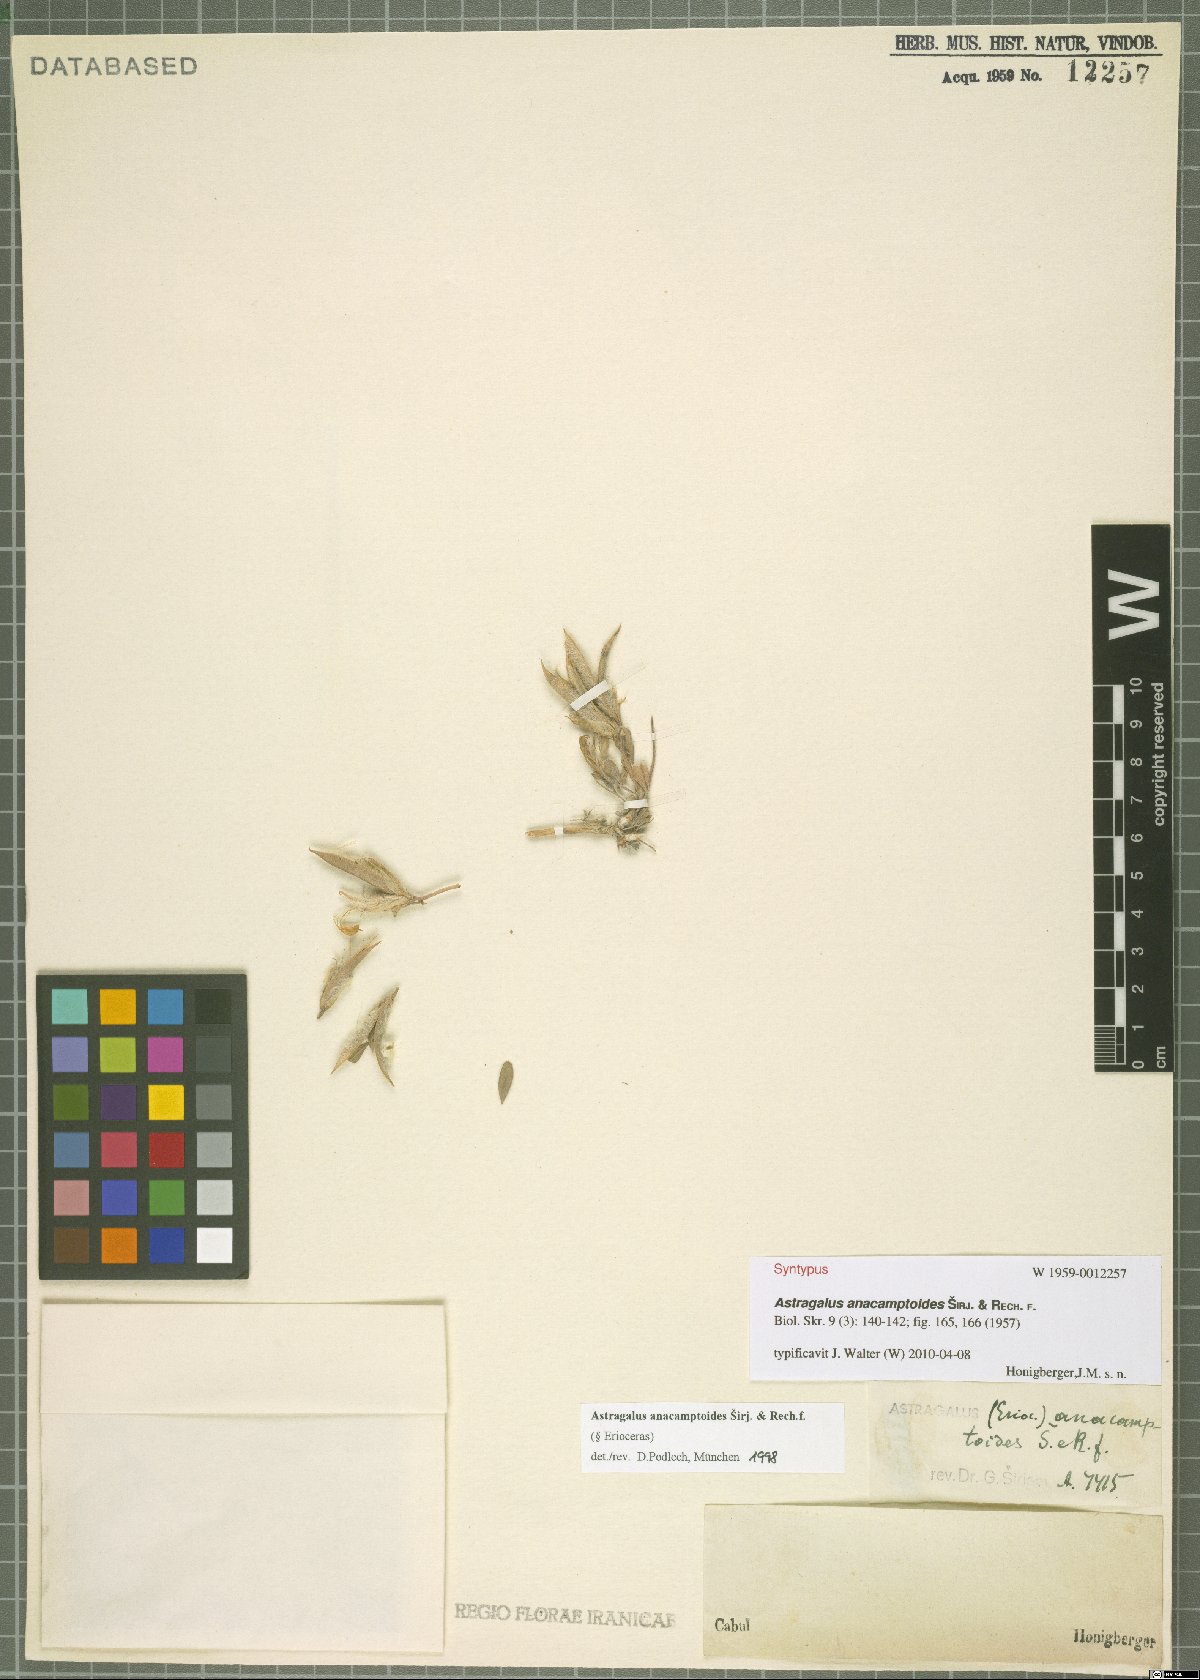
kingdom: Plantae
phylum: Tracheophyta
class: Magnoliopsida
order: Fabales
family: Fabaceae
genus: Astragalus
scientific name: Astragalus anacamptoides
